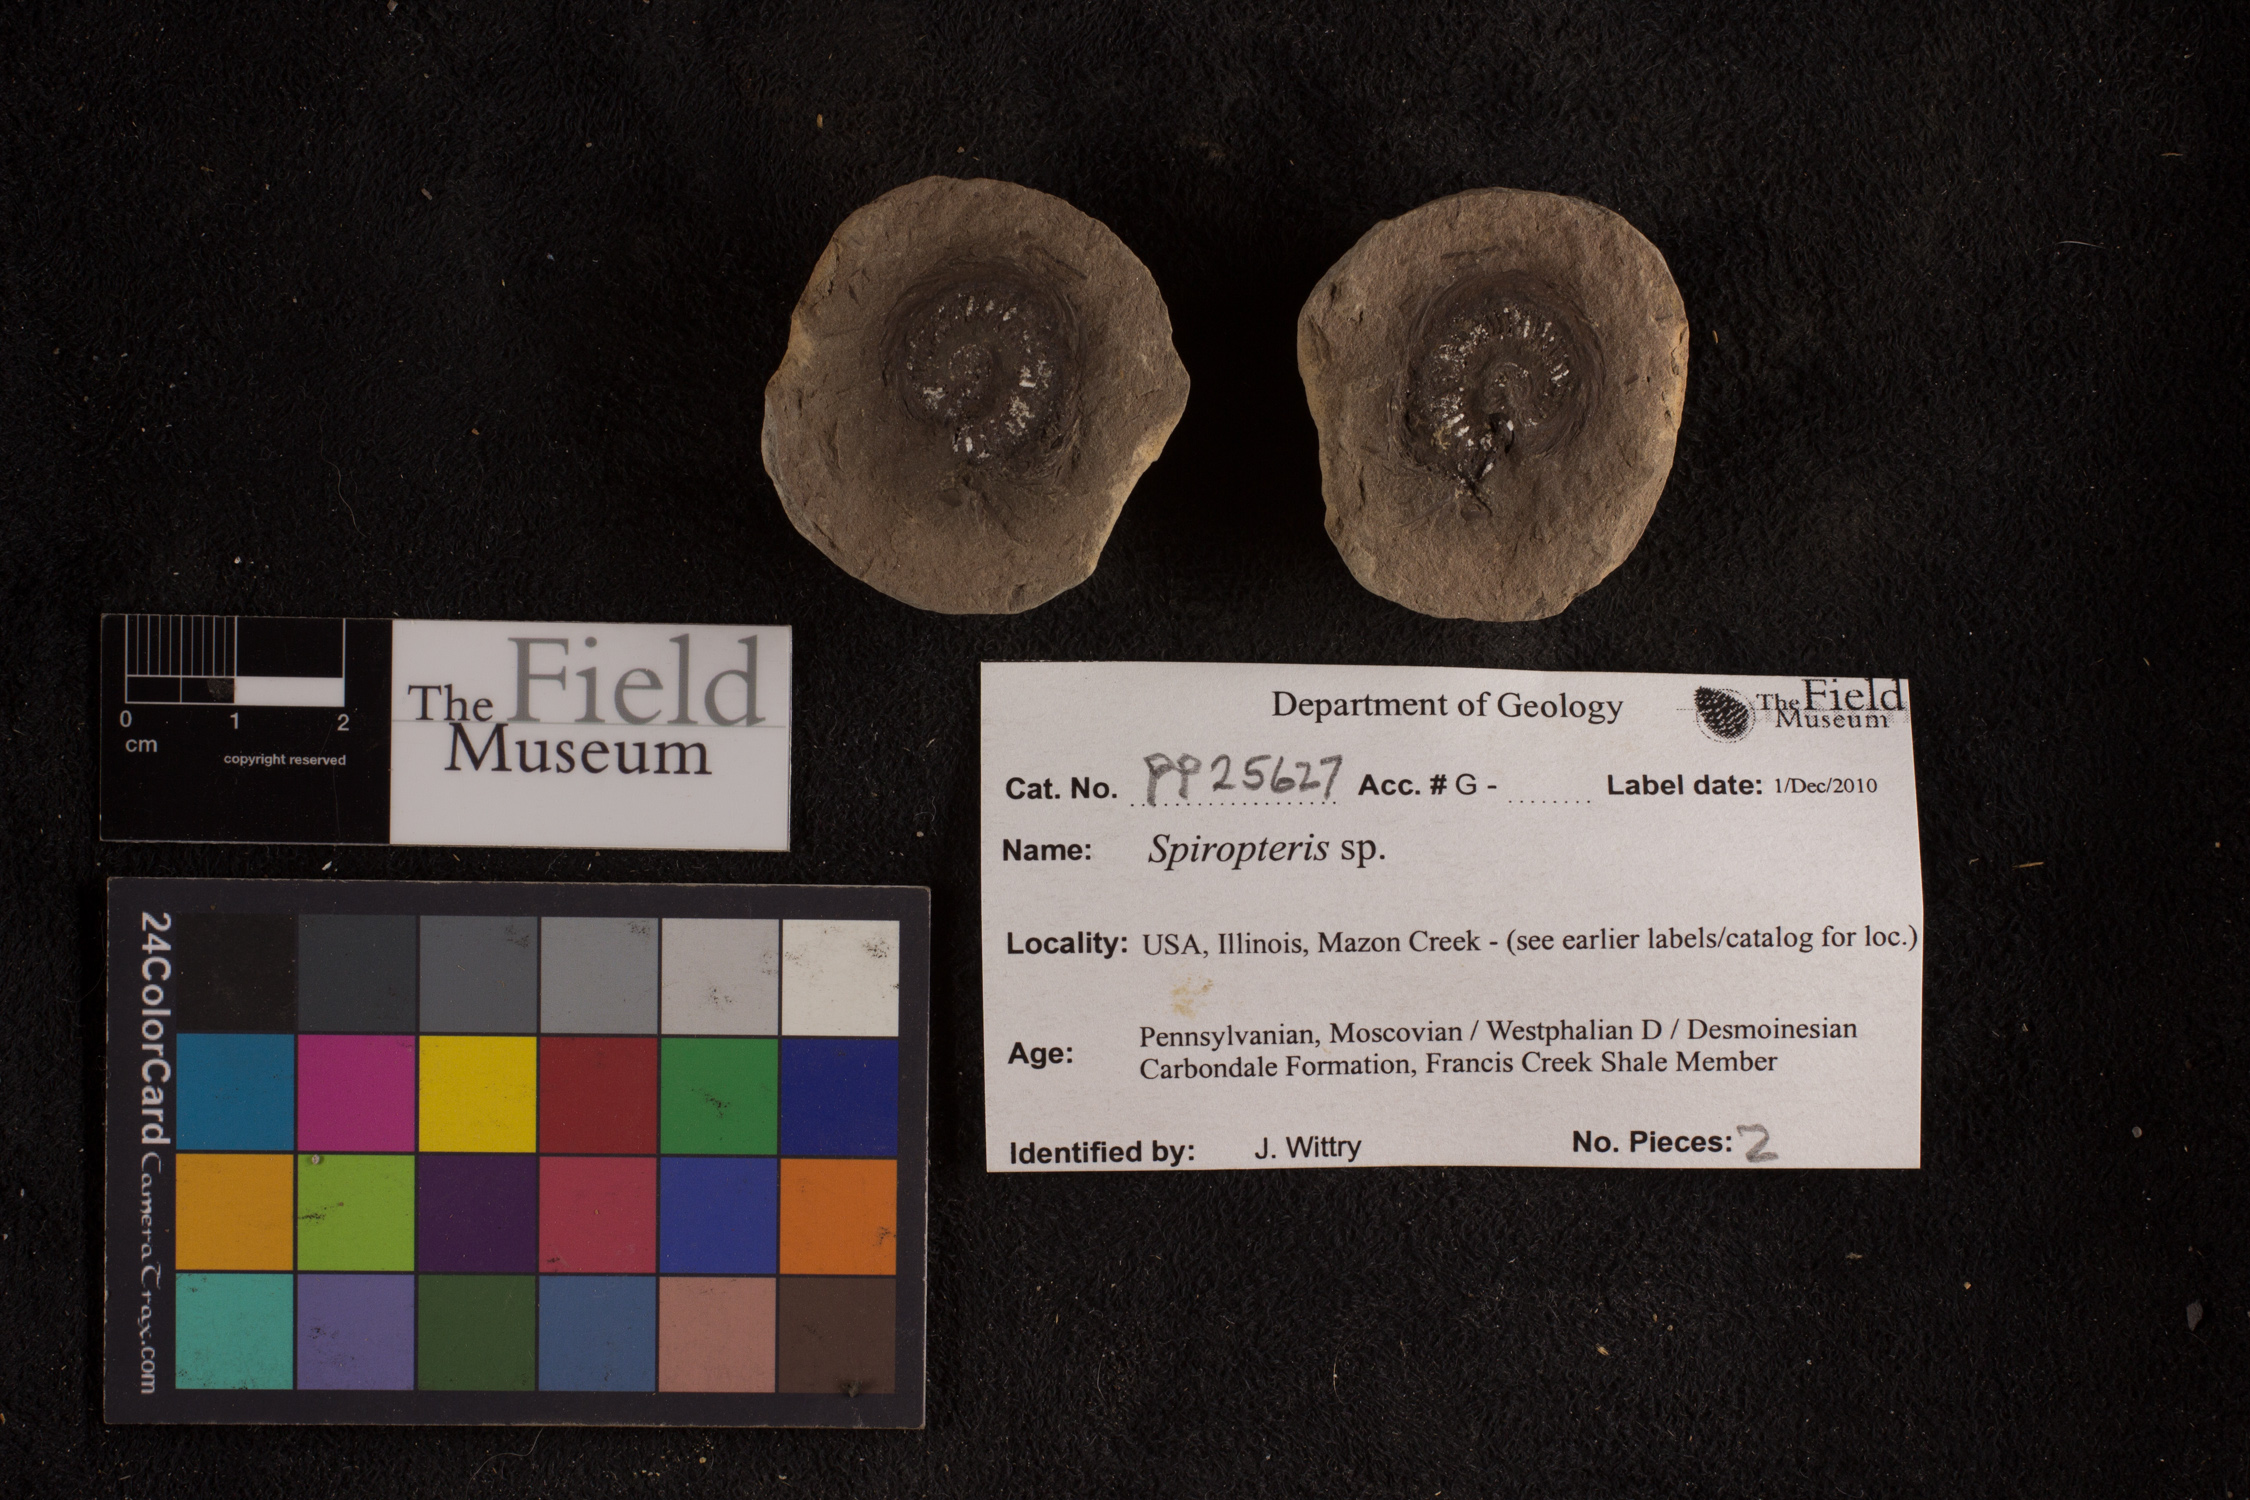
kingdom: Plantae
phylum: Tracheophyta
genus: Spiropteris
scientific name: Spiropteris
